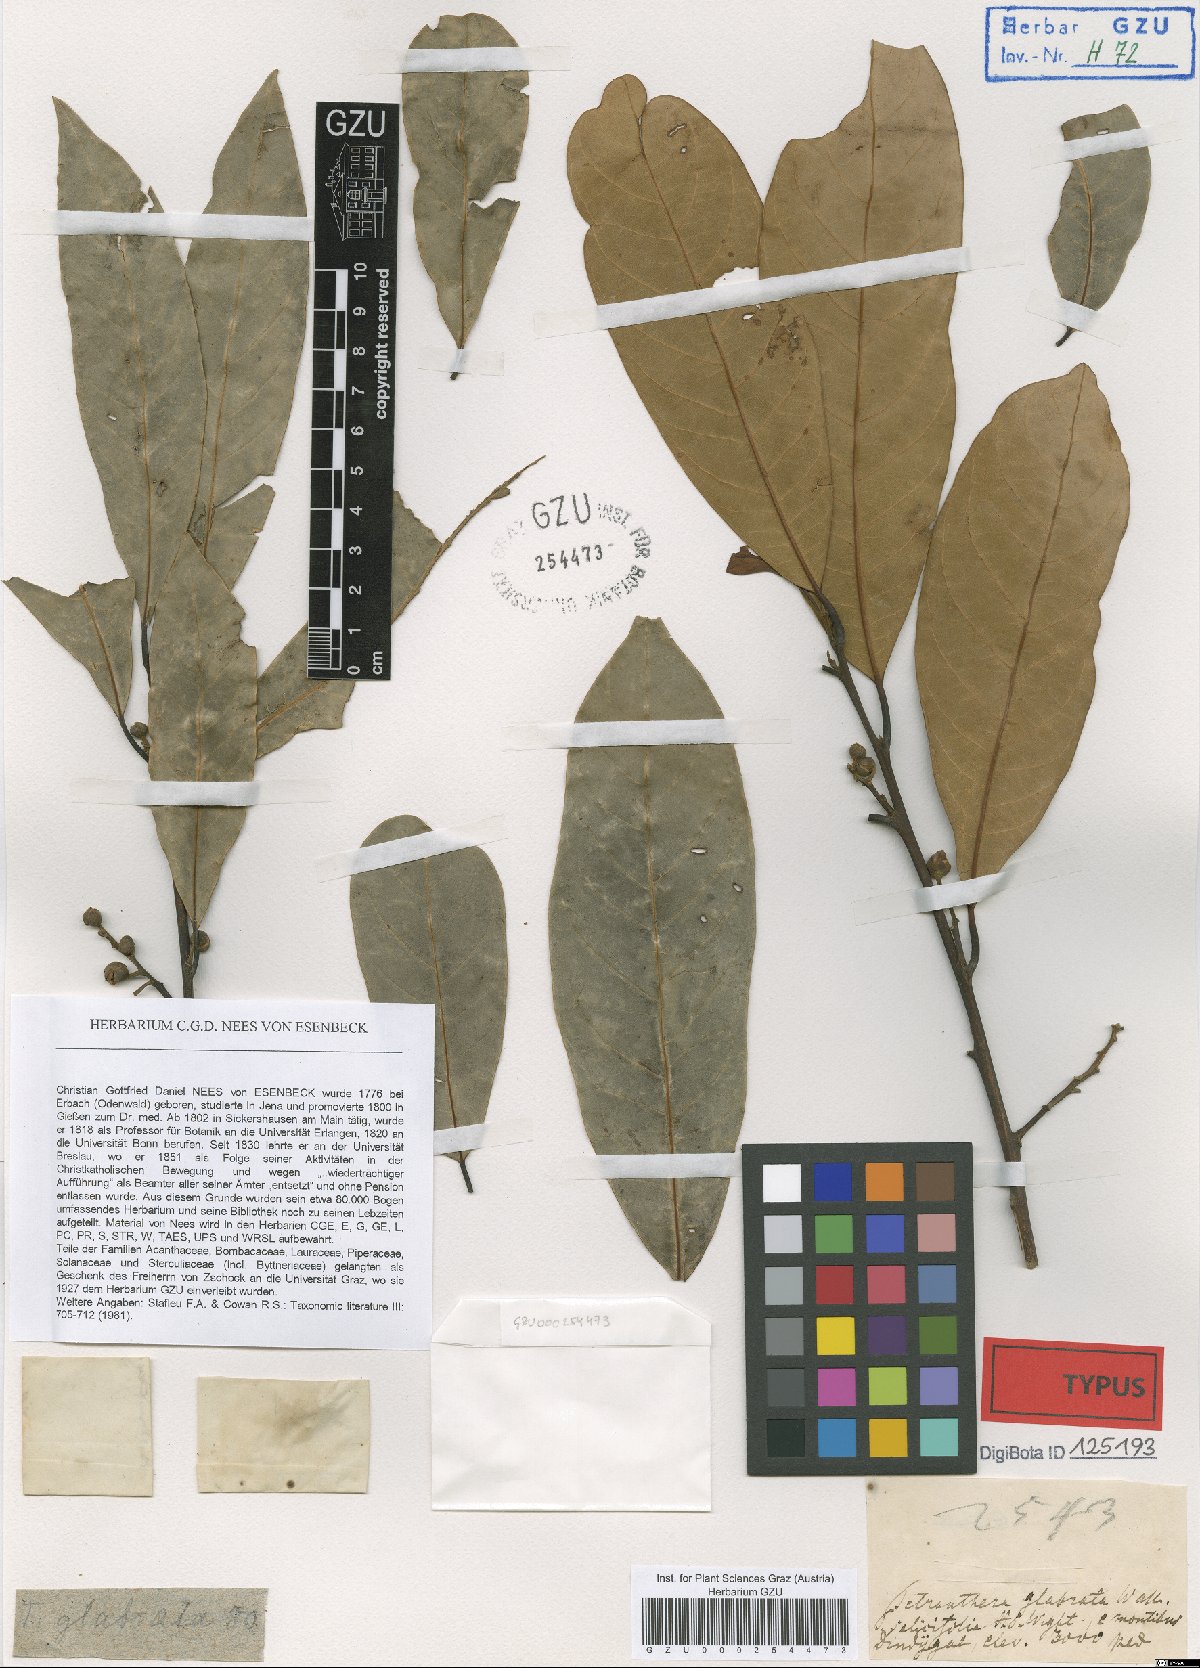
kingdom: Plantae
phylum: Tracheophyta
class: Magnoliopsida
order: Laurales
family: Lauraceae
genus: Litsea
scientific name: Litsea glabrata
